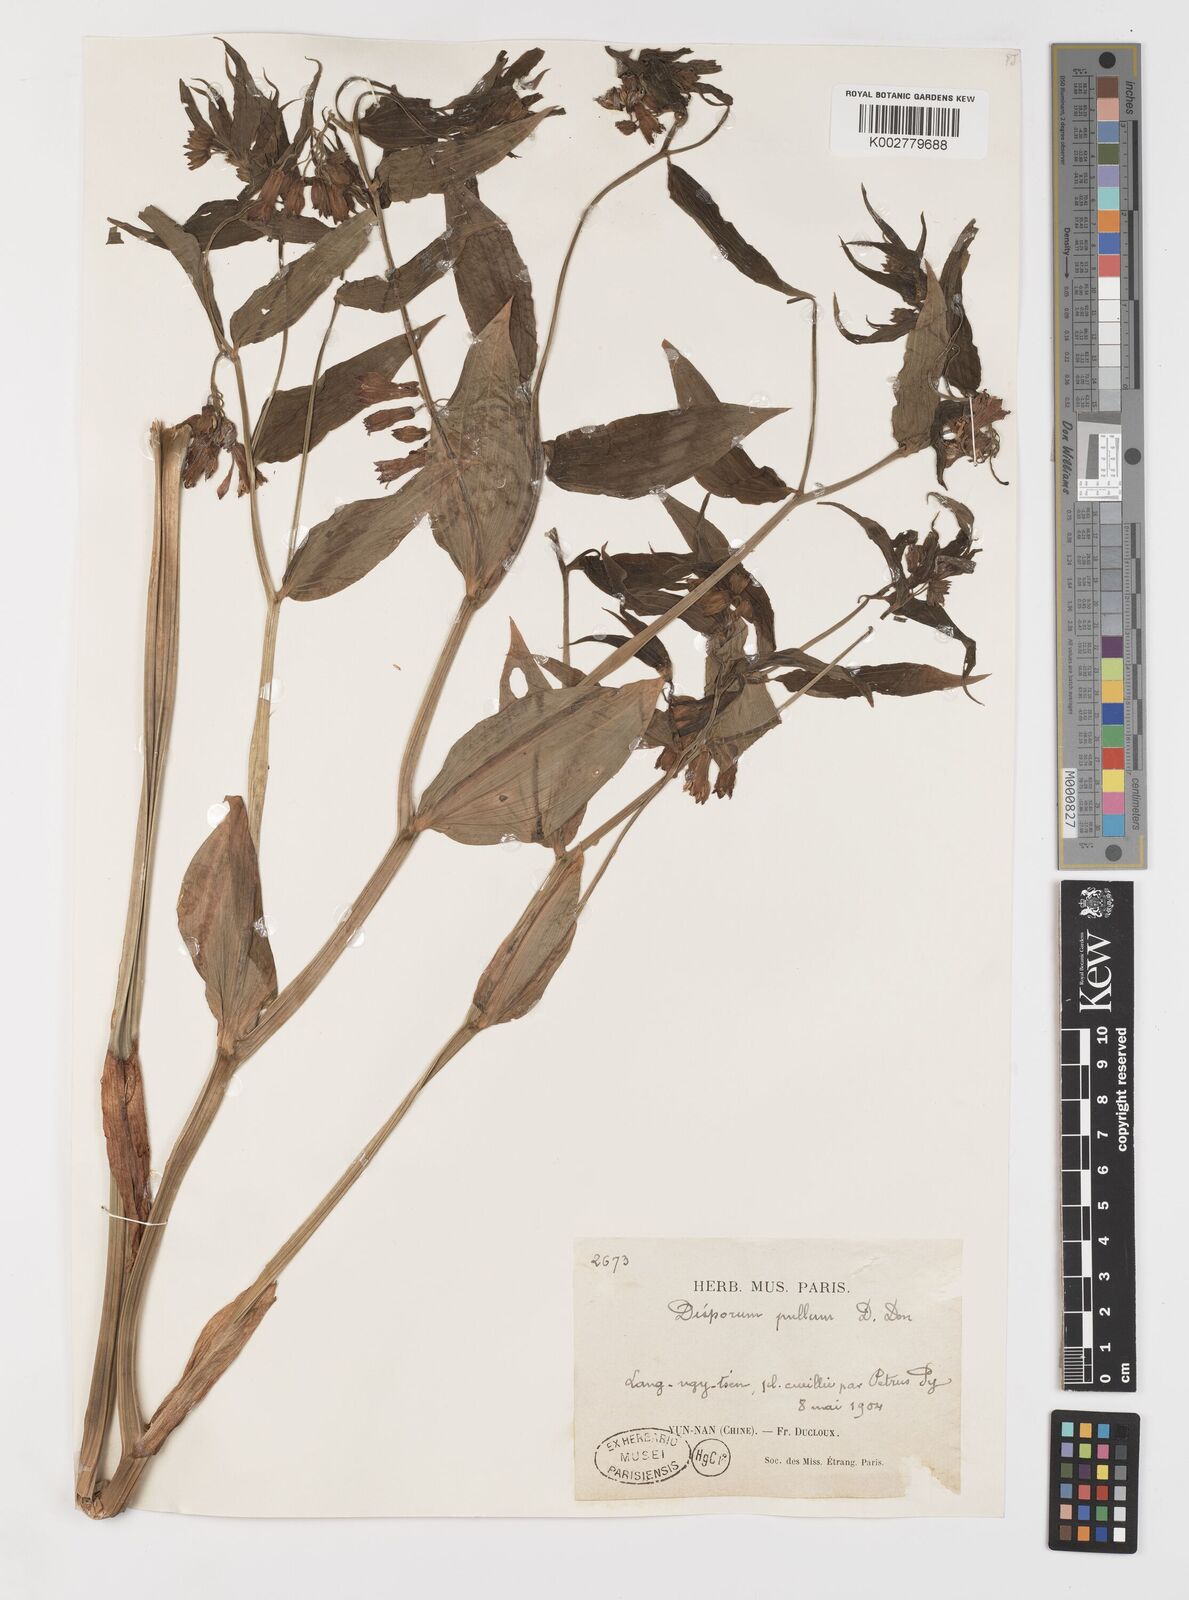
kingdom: Plantae
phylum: Tracheophyta
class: Liliopsida
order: Liliales
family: Colchicaceae
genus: Disporum
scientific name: Disporum cantoniense
